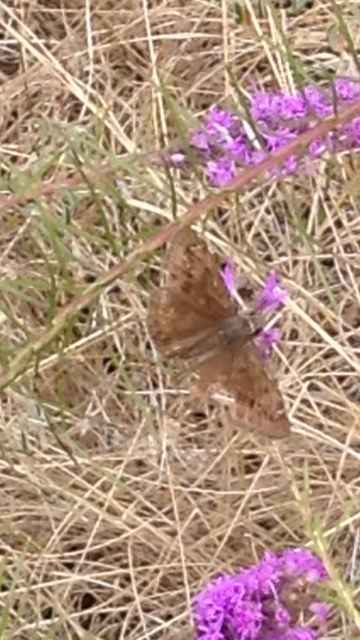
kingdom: Animalia
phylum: Arthropoda
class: Insecta
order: Lepidoptera
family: Hesperiidae
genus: Gesta
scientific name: Gesta
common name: Horace's Duskywing
